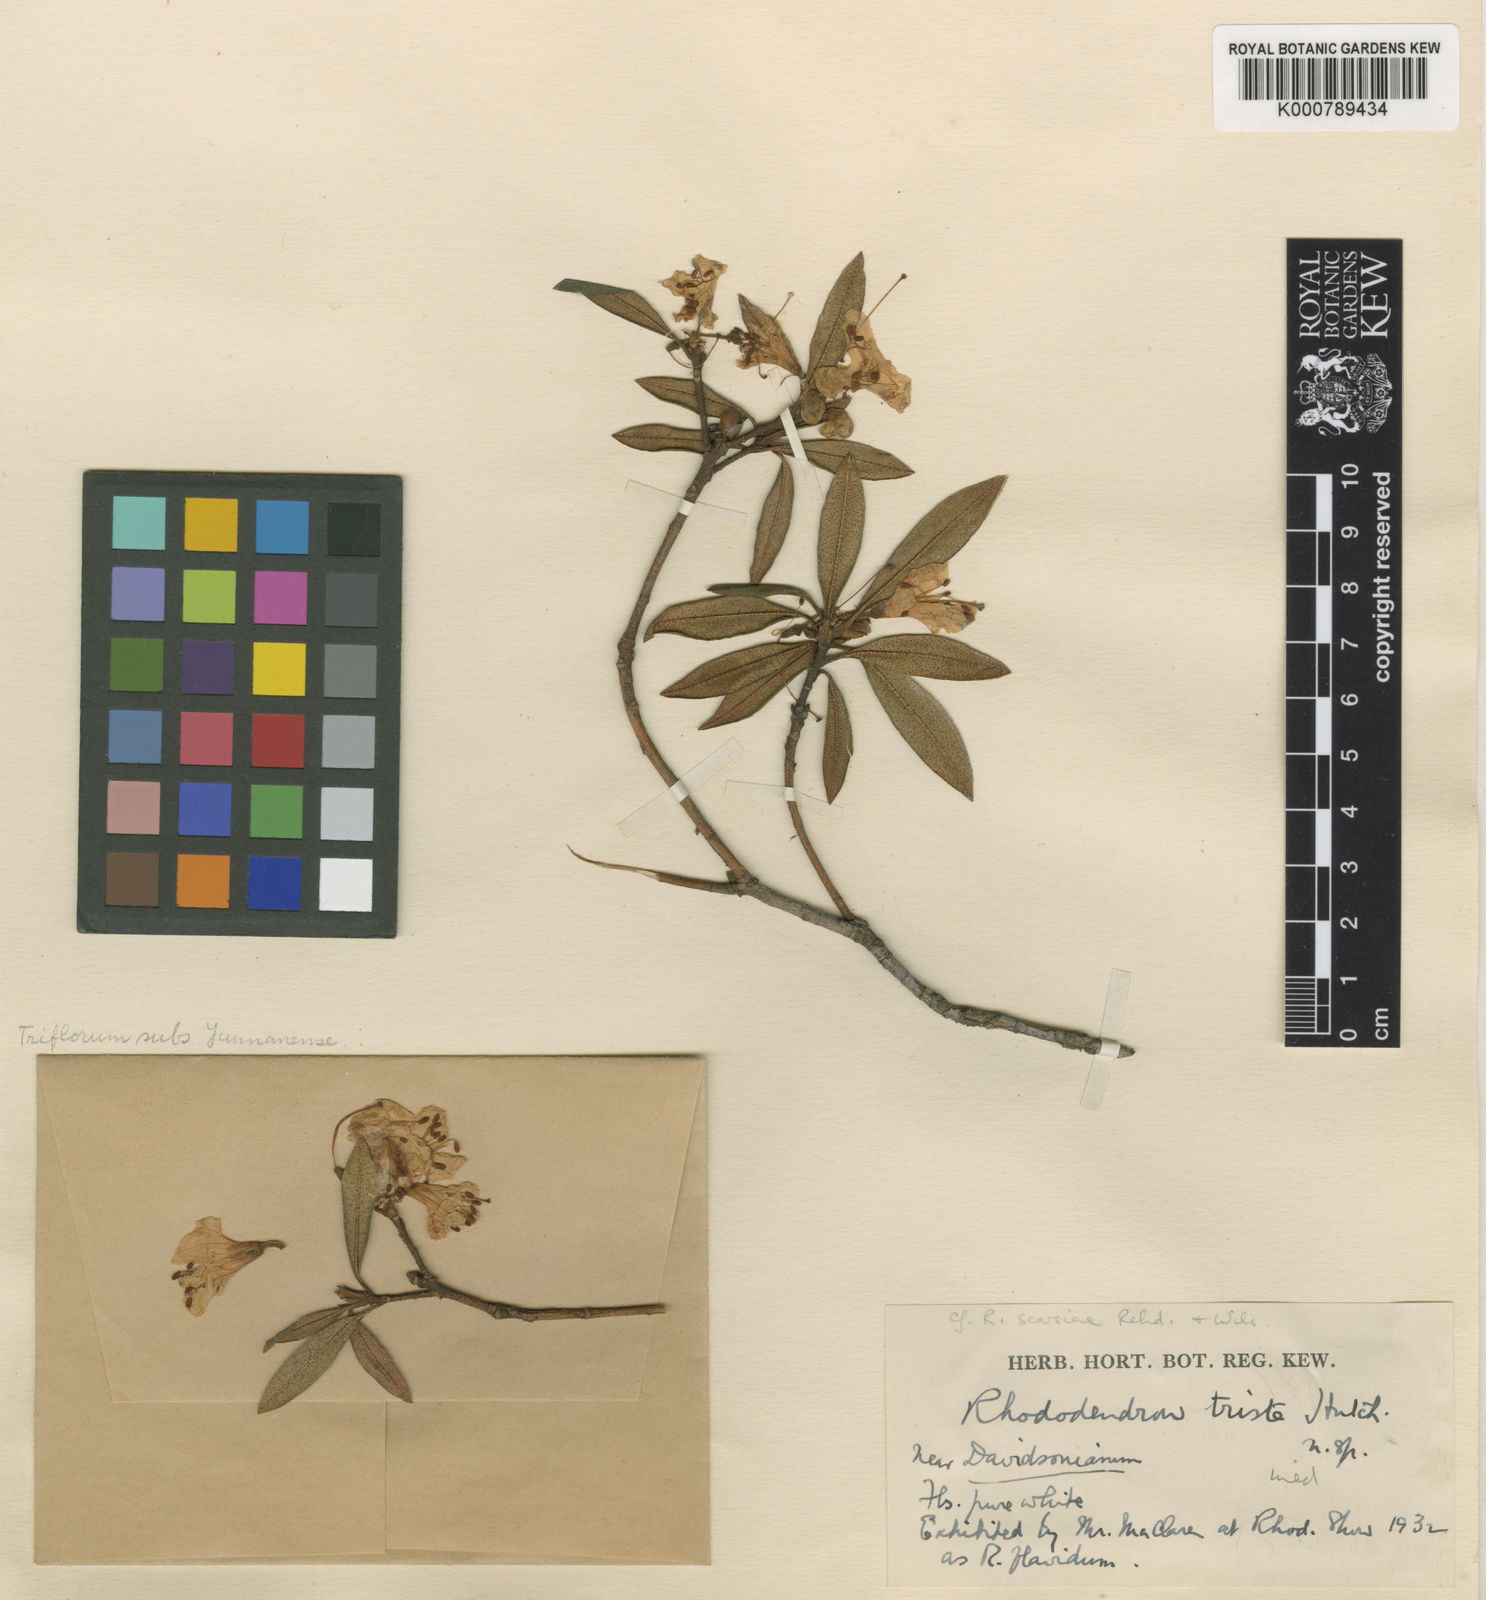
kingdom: Plantae
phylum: Tracheophyta
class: Magnoliopsida
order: Ericales
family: Ericaceae
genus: Rhododendron
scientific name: Rhododendron searsiae
